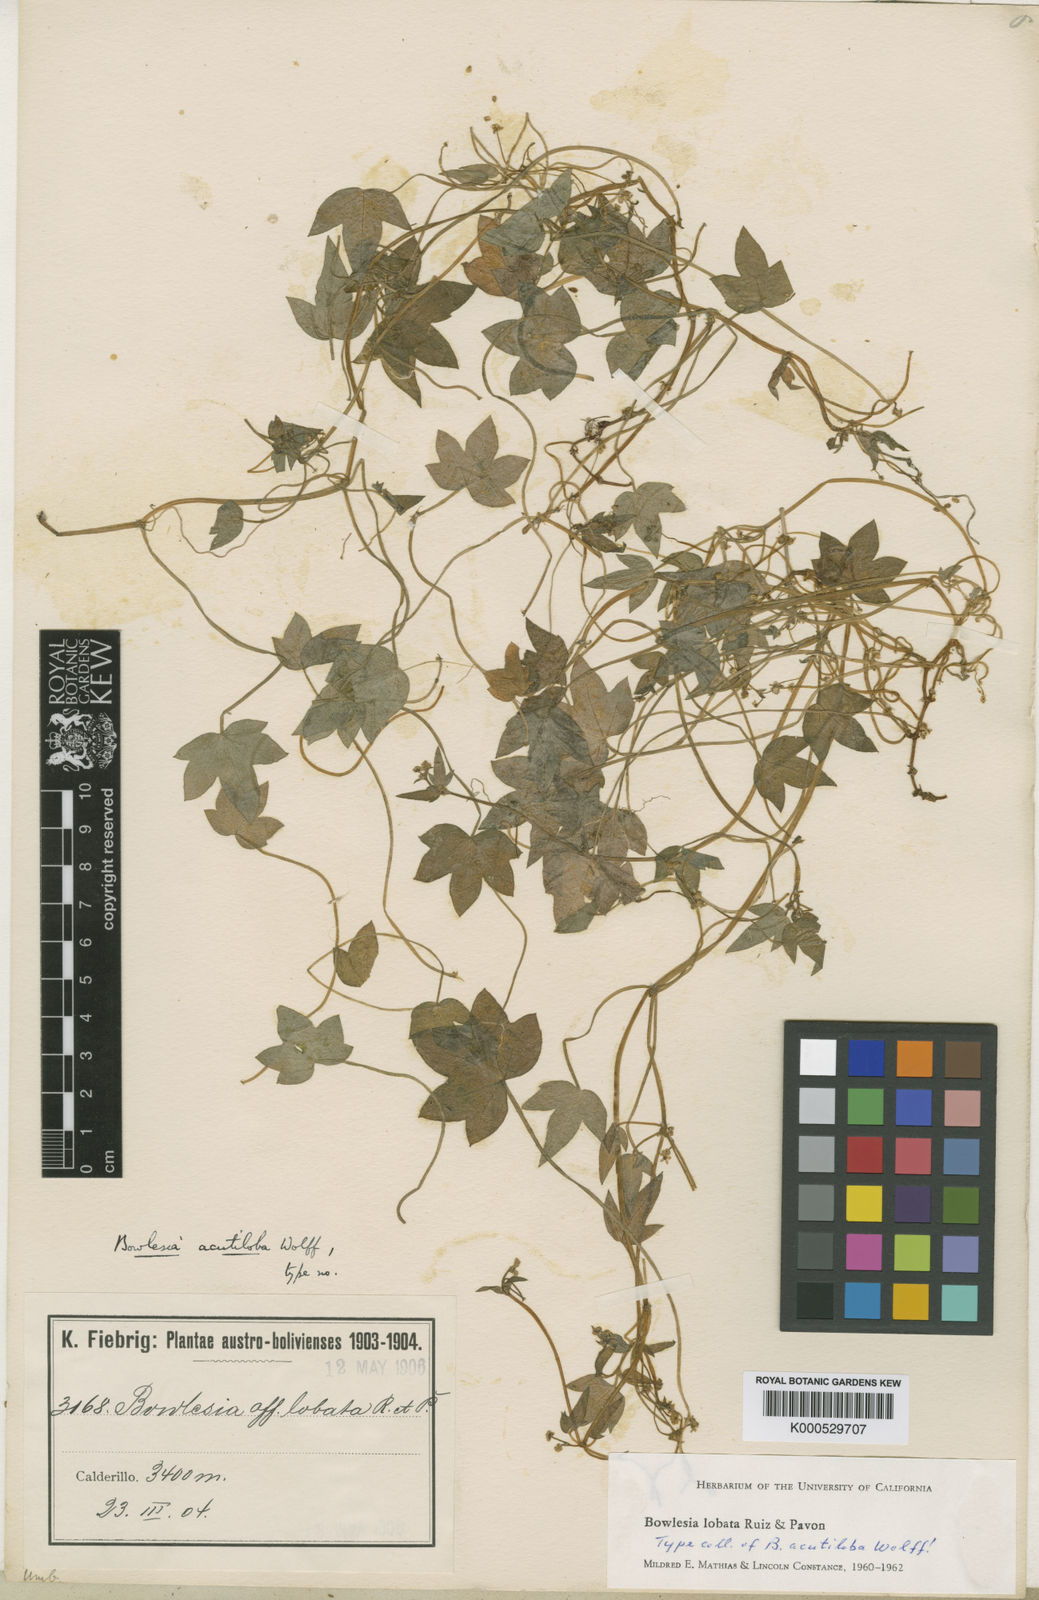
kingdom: Plantae
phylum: Tracheophyta
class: Magnoliopsida
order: Apiales
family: Apiaceae
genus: Bowlesia
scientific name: Bowlesia lobata
